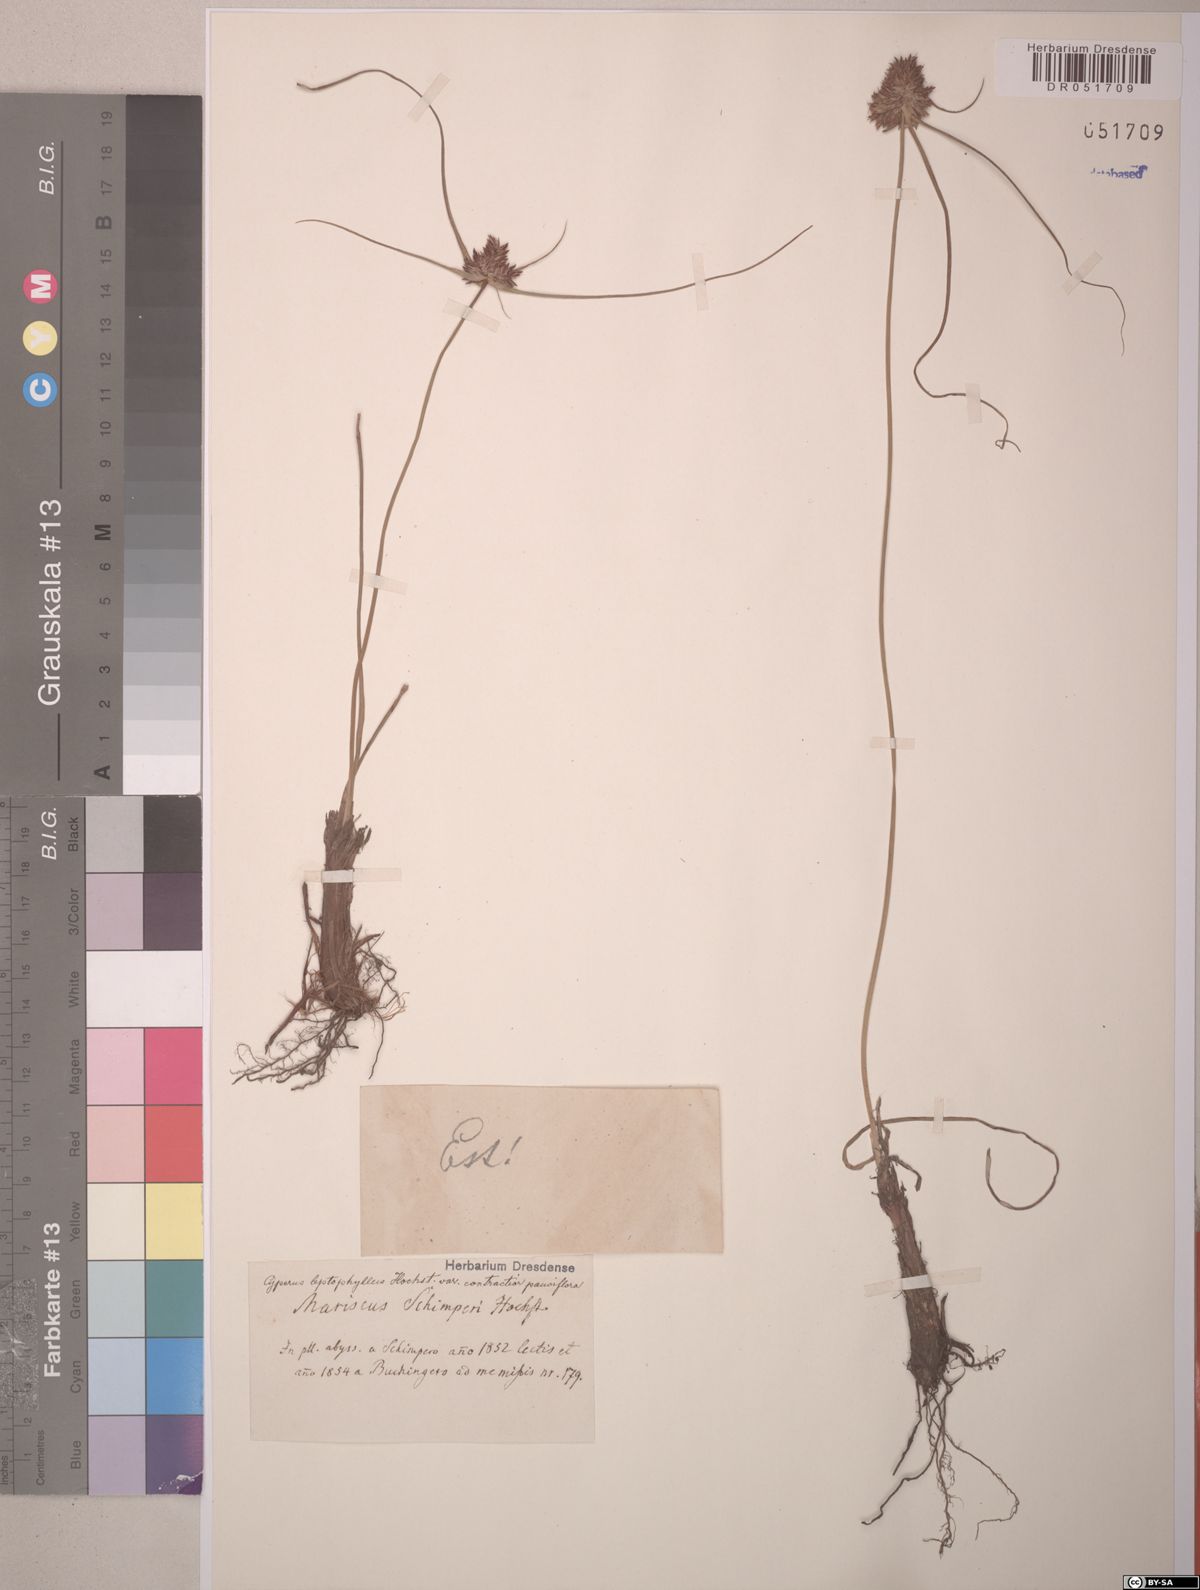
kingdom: Plantae
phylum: Tracheophyta
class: Liliopsida
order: Poales
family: Cyperaceae
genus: Cyperus
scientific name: Cyperus cruentus
